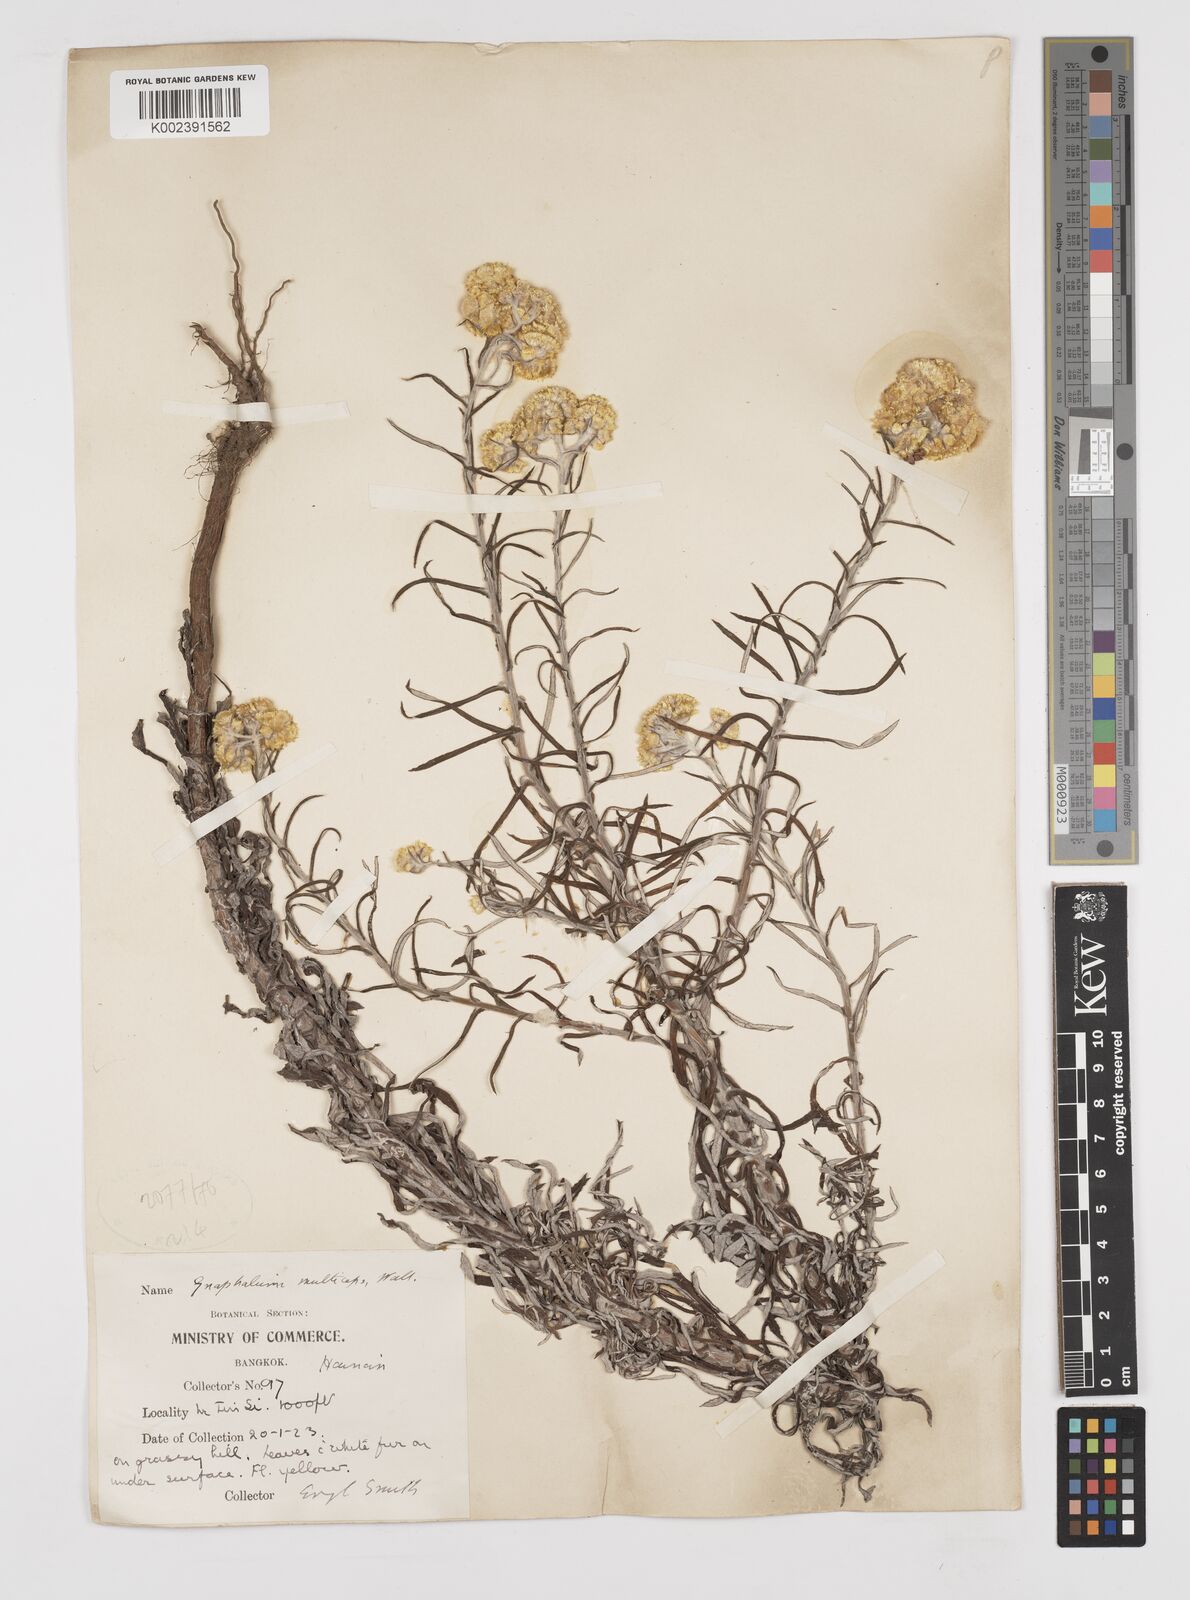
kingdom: Plantae
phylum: Tracheophyta
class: Magnoliopsida
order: Asterales
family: Asteraceae
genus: Pseudognaphalium
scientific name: Pseudognaphalium affine
